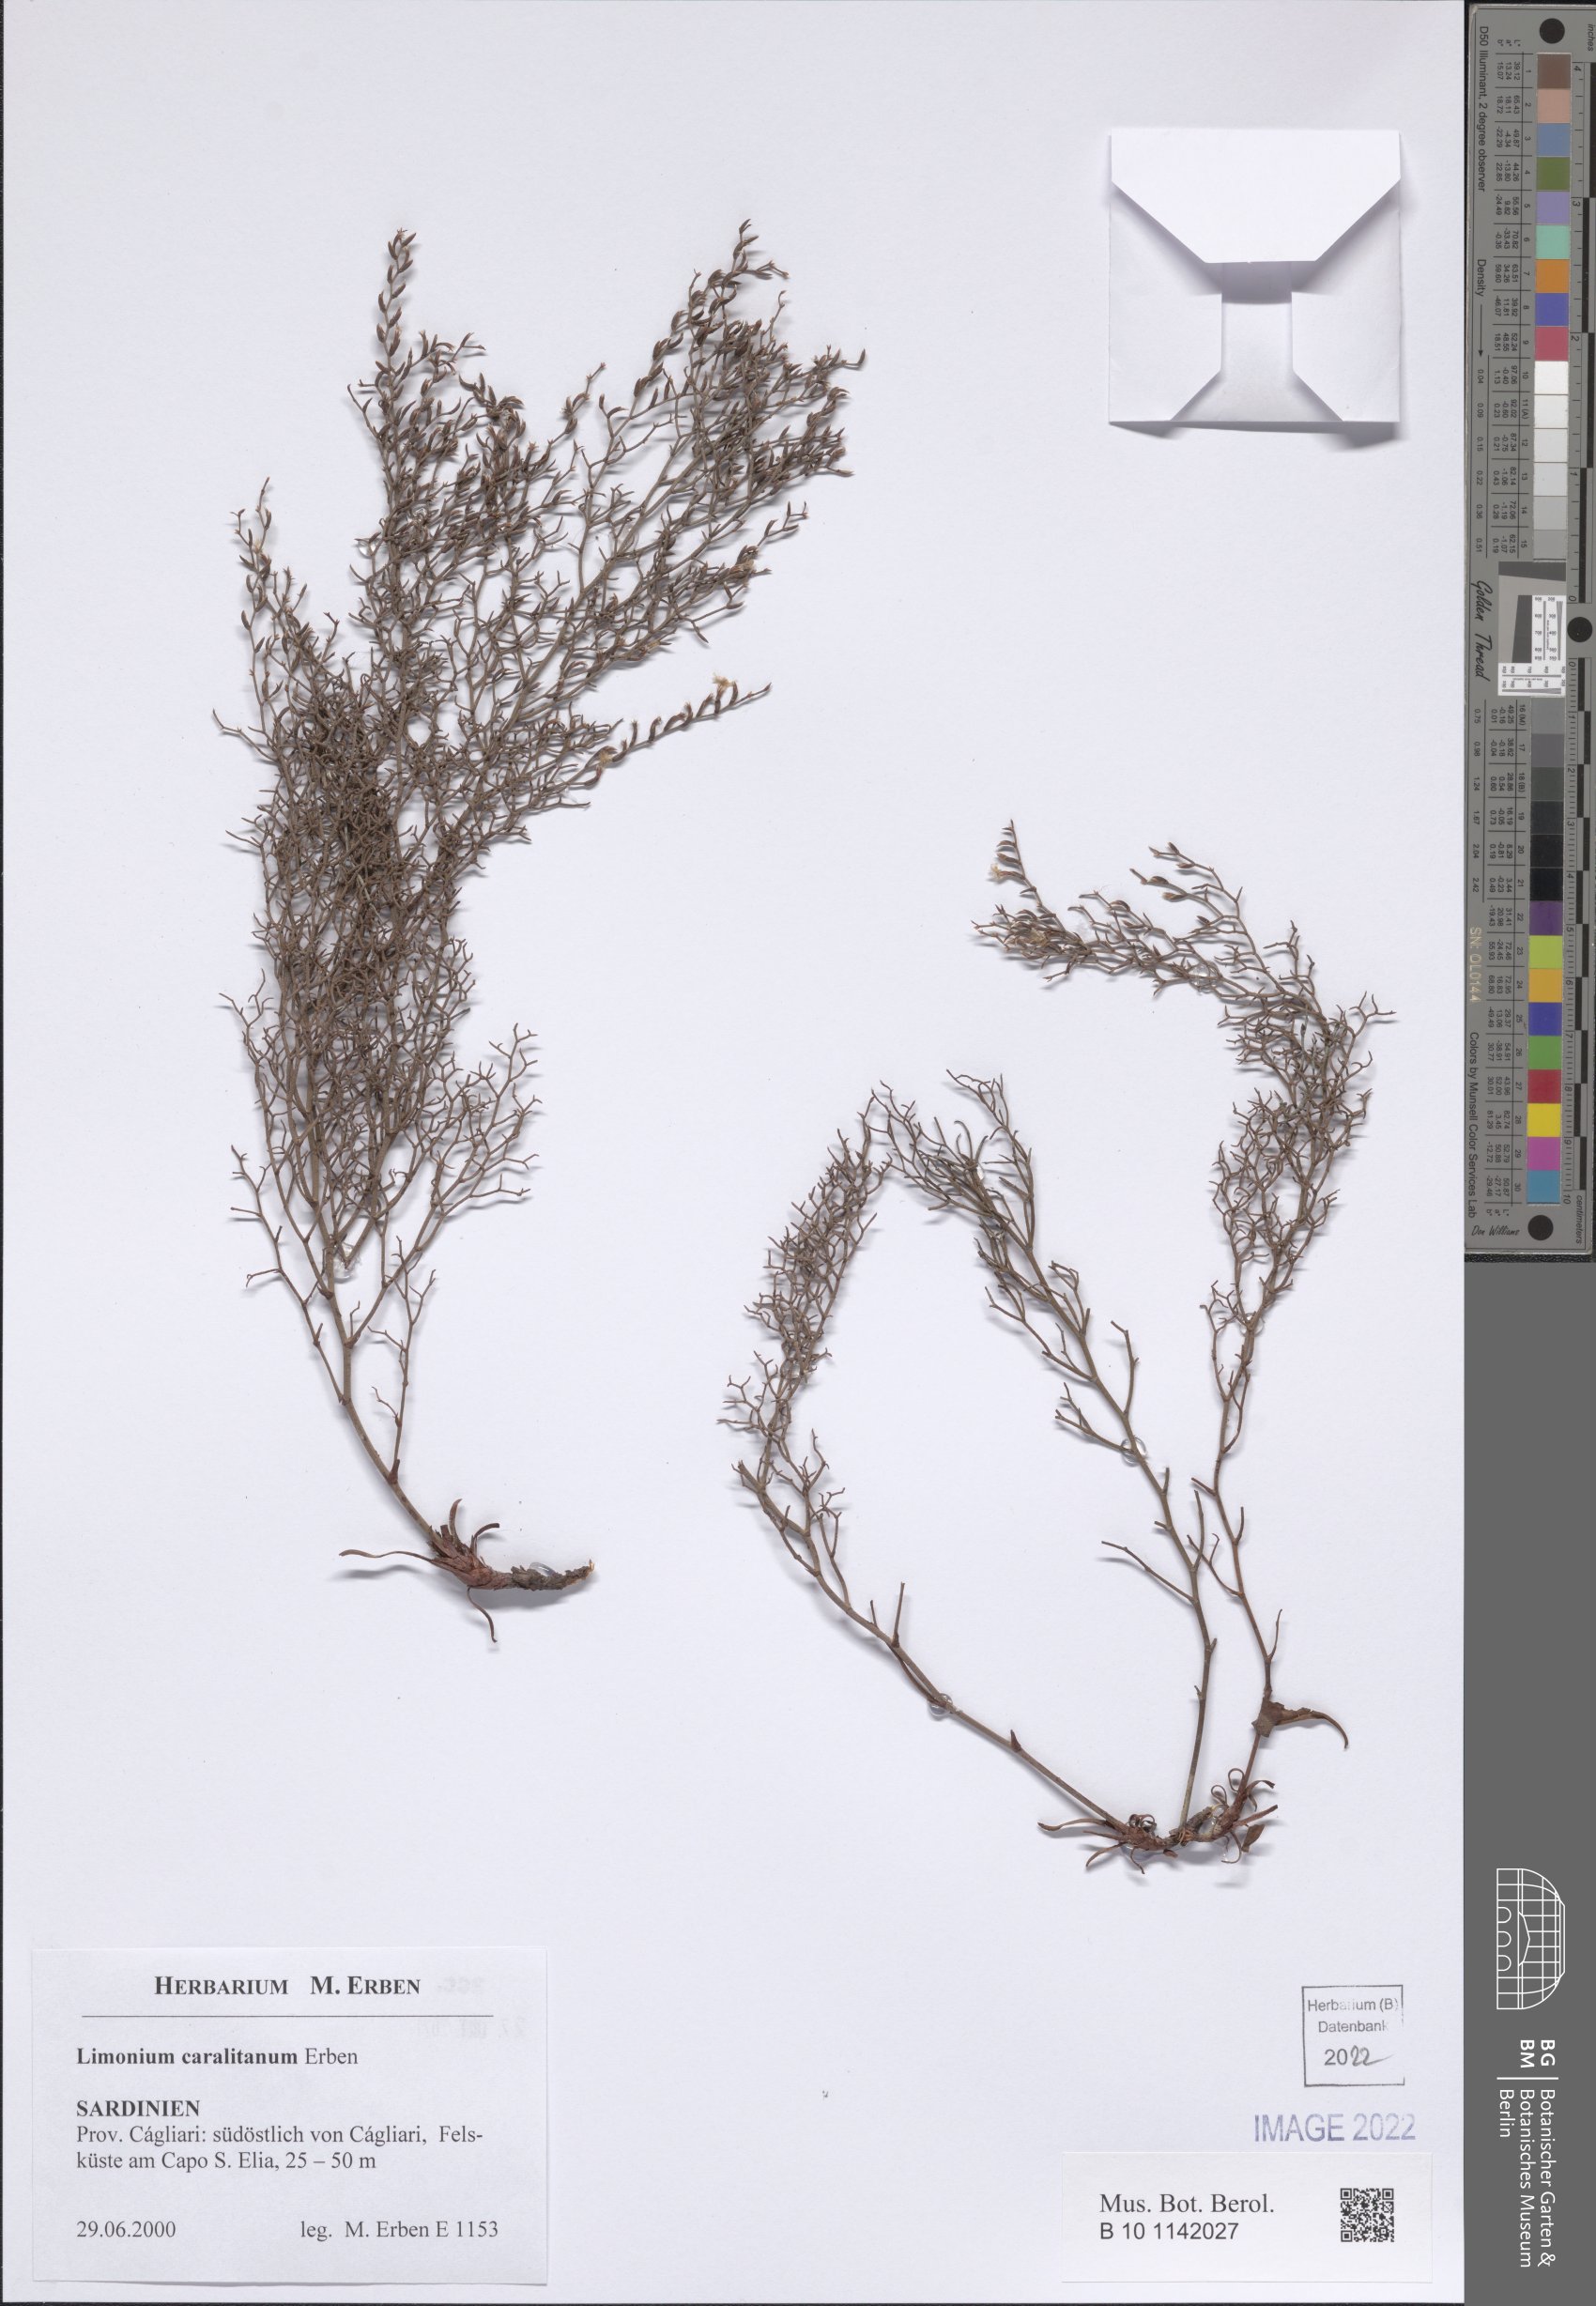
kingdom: Plantae
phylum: Tracheophyta
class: Magnoliopsida
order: Caryophyllales
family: Plumbaginaceae
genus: Limonium
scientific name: Limonium sardoum
